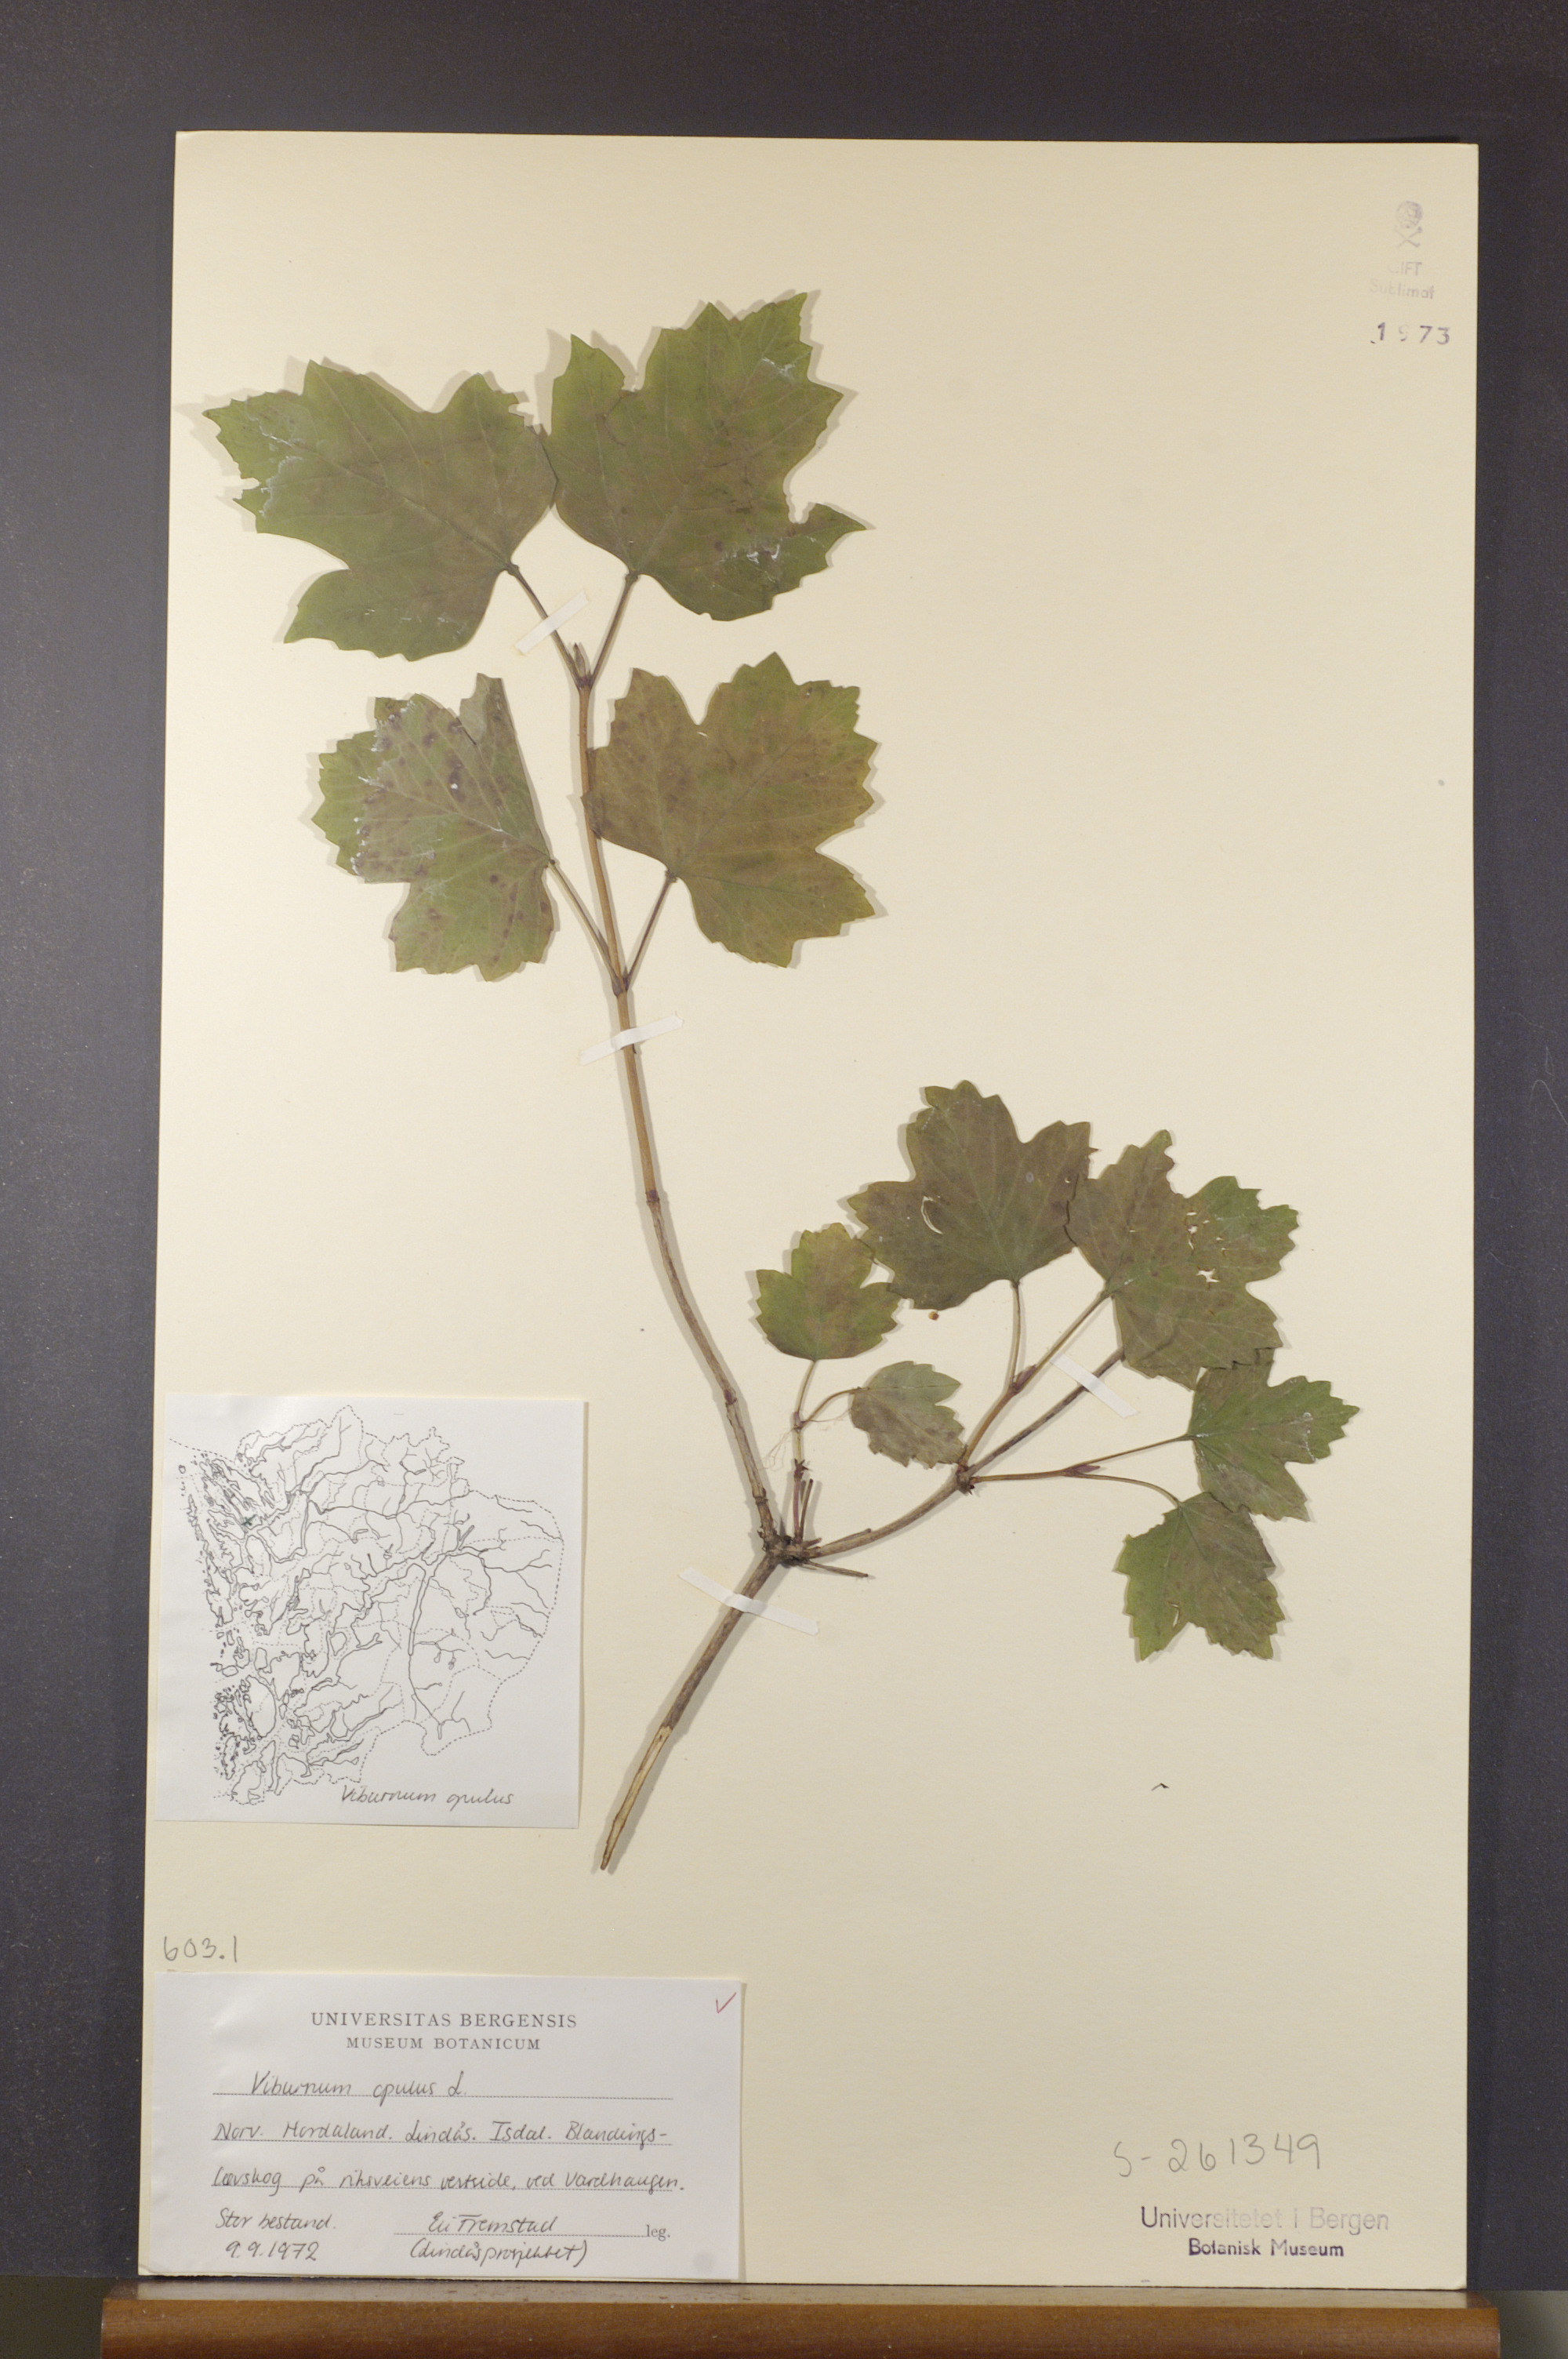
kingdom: Plantae
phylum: Tracheophyta
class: Magnoliopsida
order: Dipsacales
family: Viburnaceae
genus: Viburnum
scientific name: Viburnum opulus
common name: Guelder-rose
